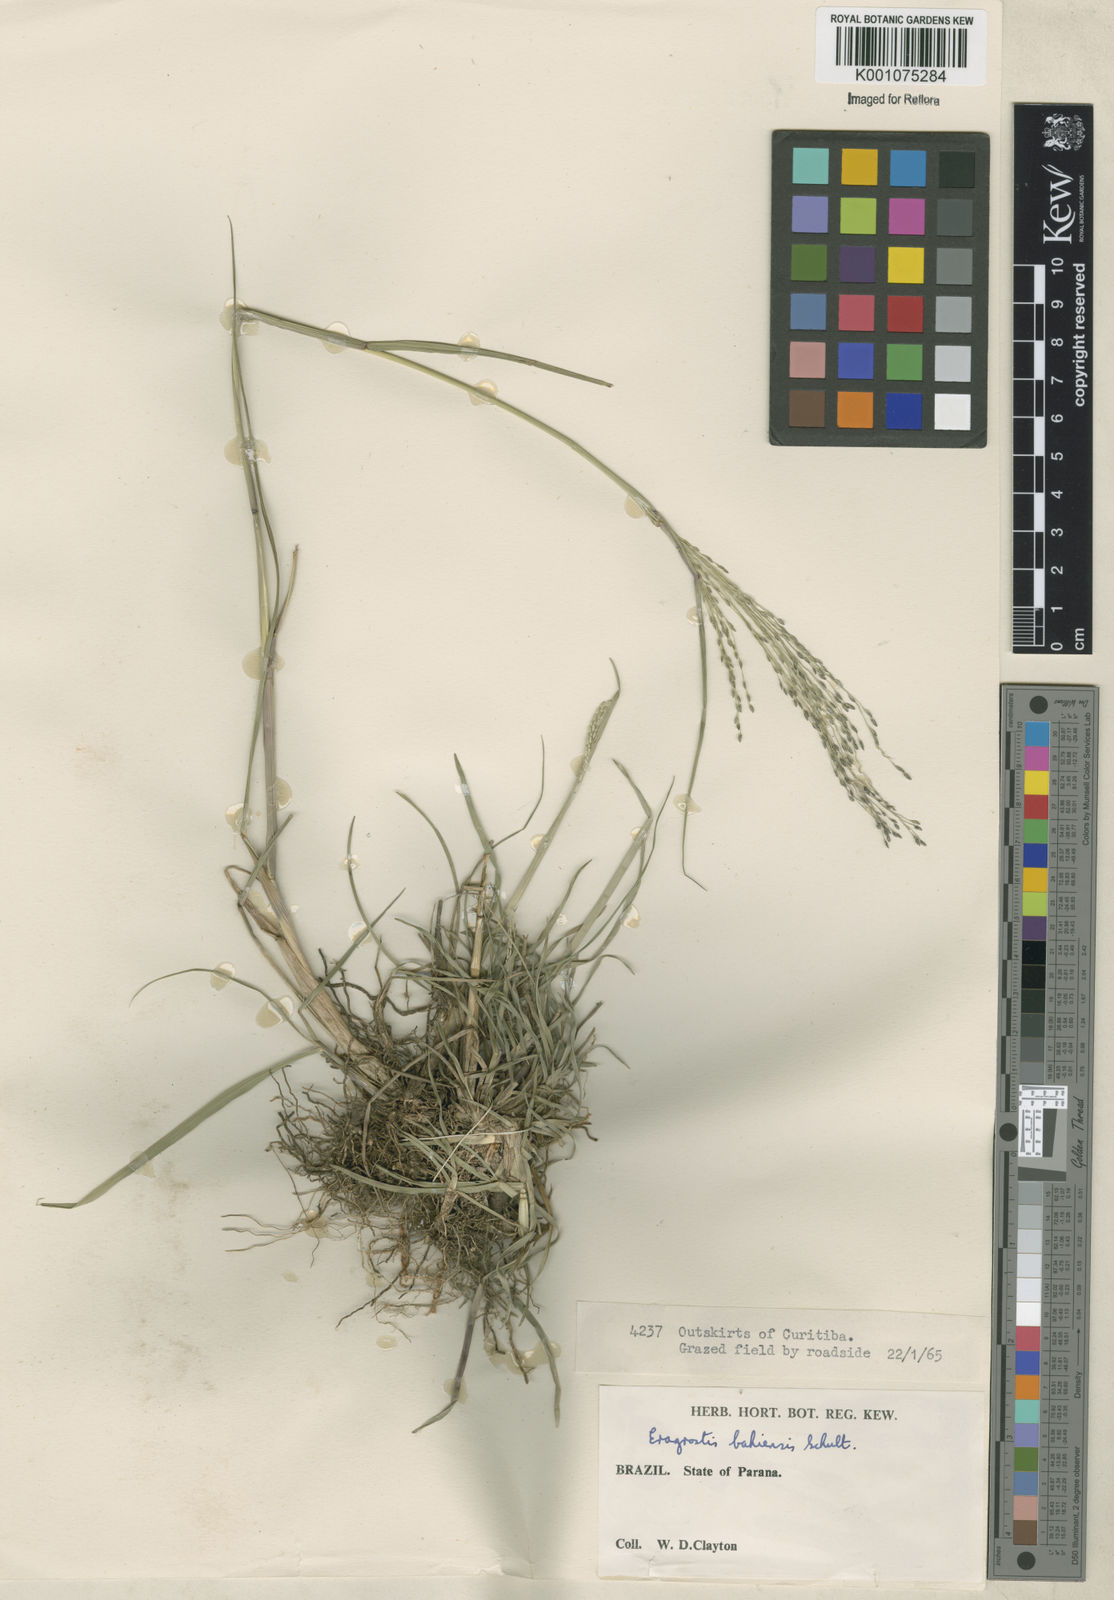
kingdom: Plantae
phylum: Tracheophyta
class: Liliopsida
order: Poales
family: Poaceae
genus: Eragrostis
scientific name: Eragrostis bahiensis
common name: Bahia lovegrass
